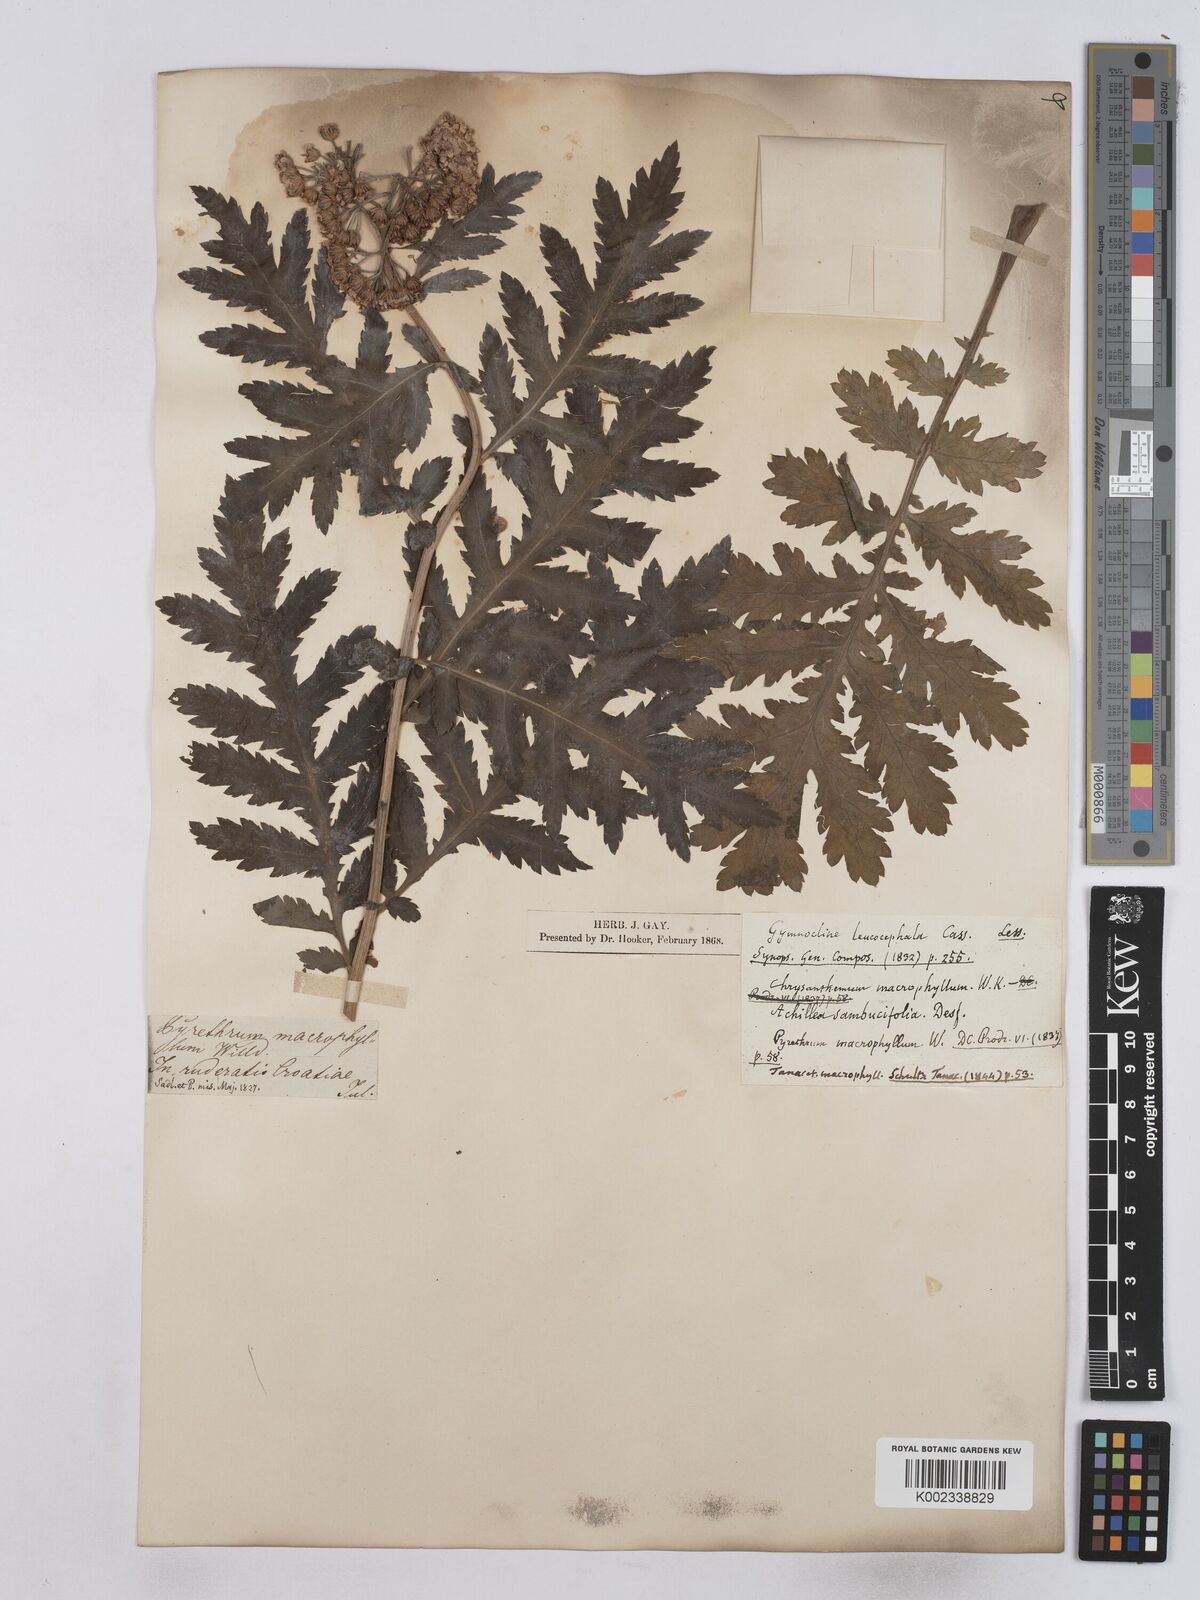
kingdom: Plantae
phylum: Tracheophyta
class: Magnoliopsida
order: Asterales
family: Asteraceae
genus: Tanacetum
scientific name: Tanacetum macrophyllum
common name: Rayed tansy
